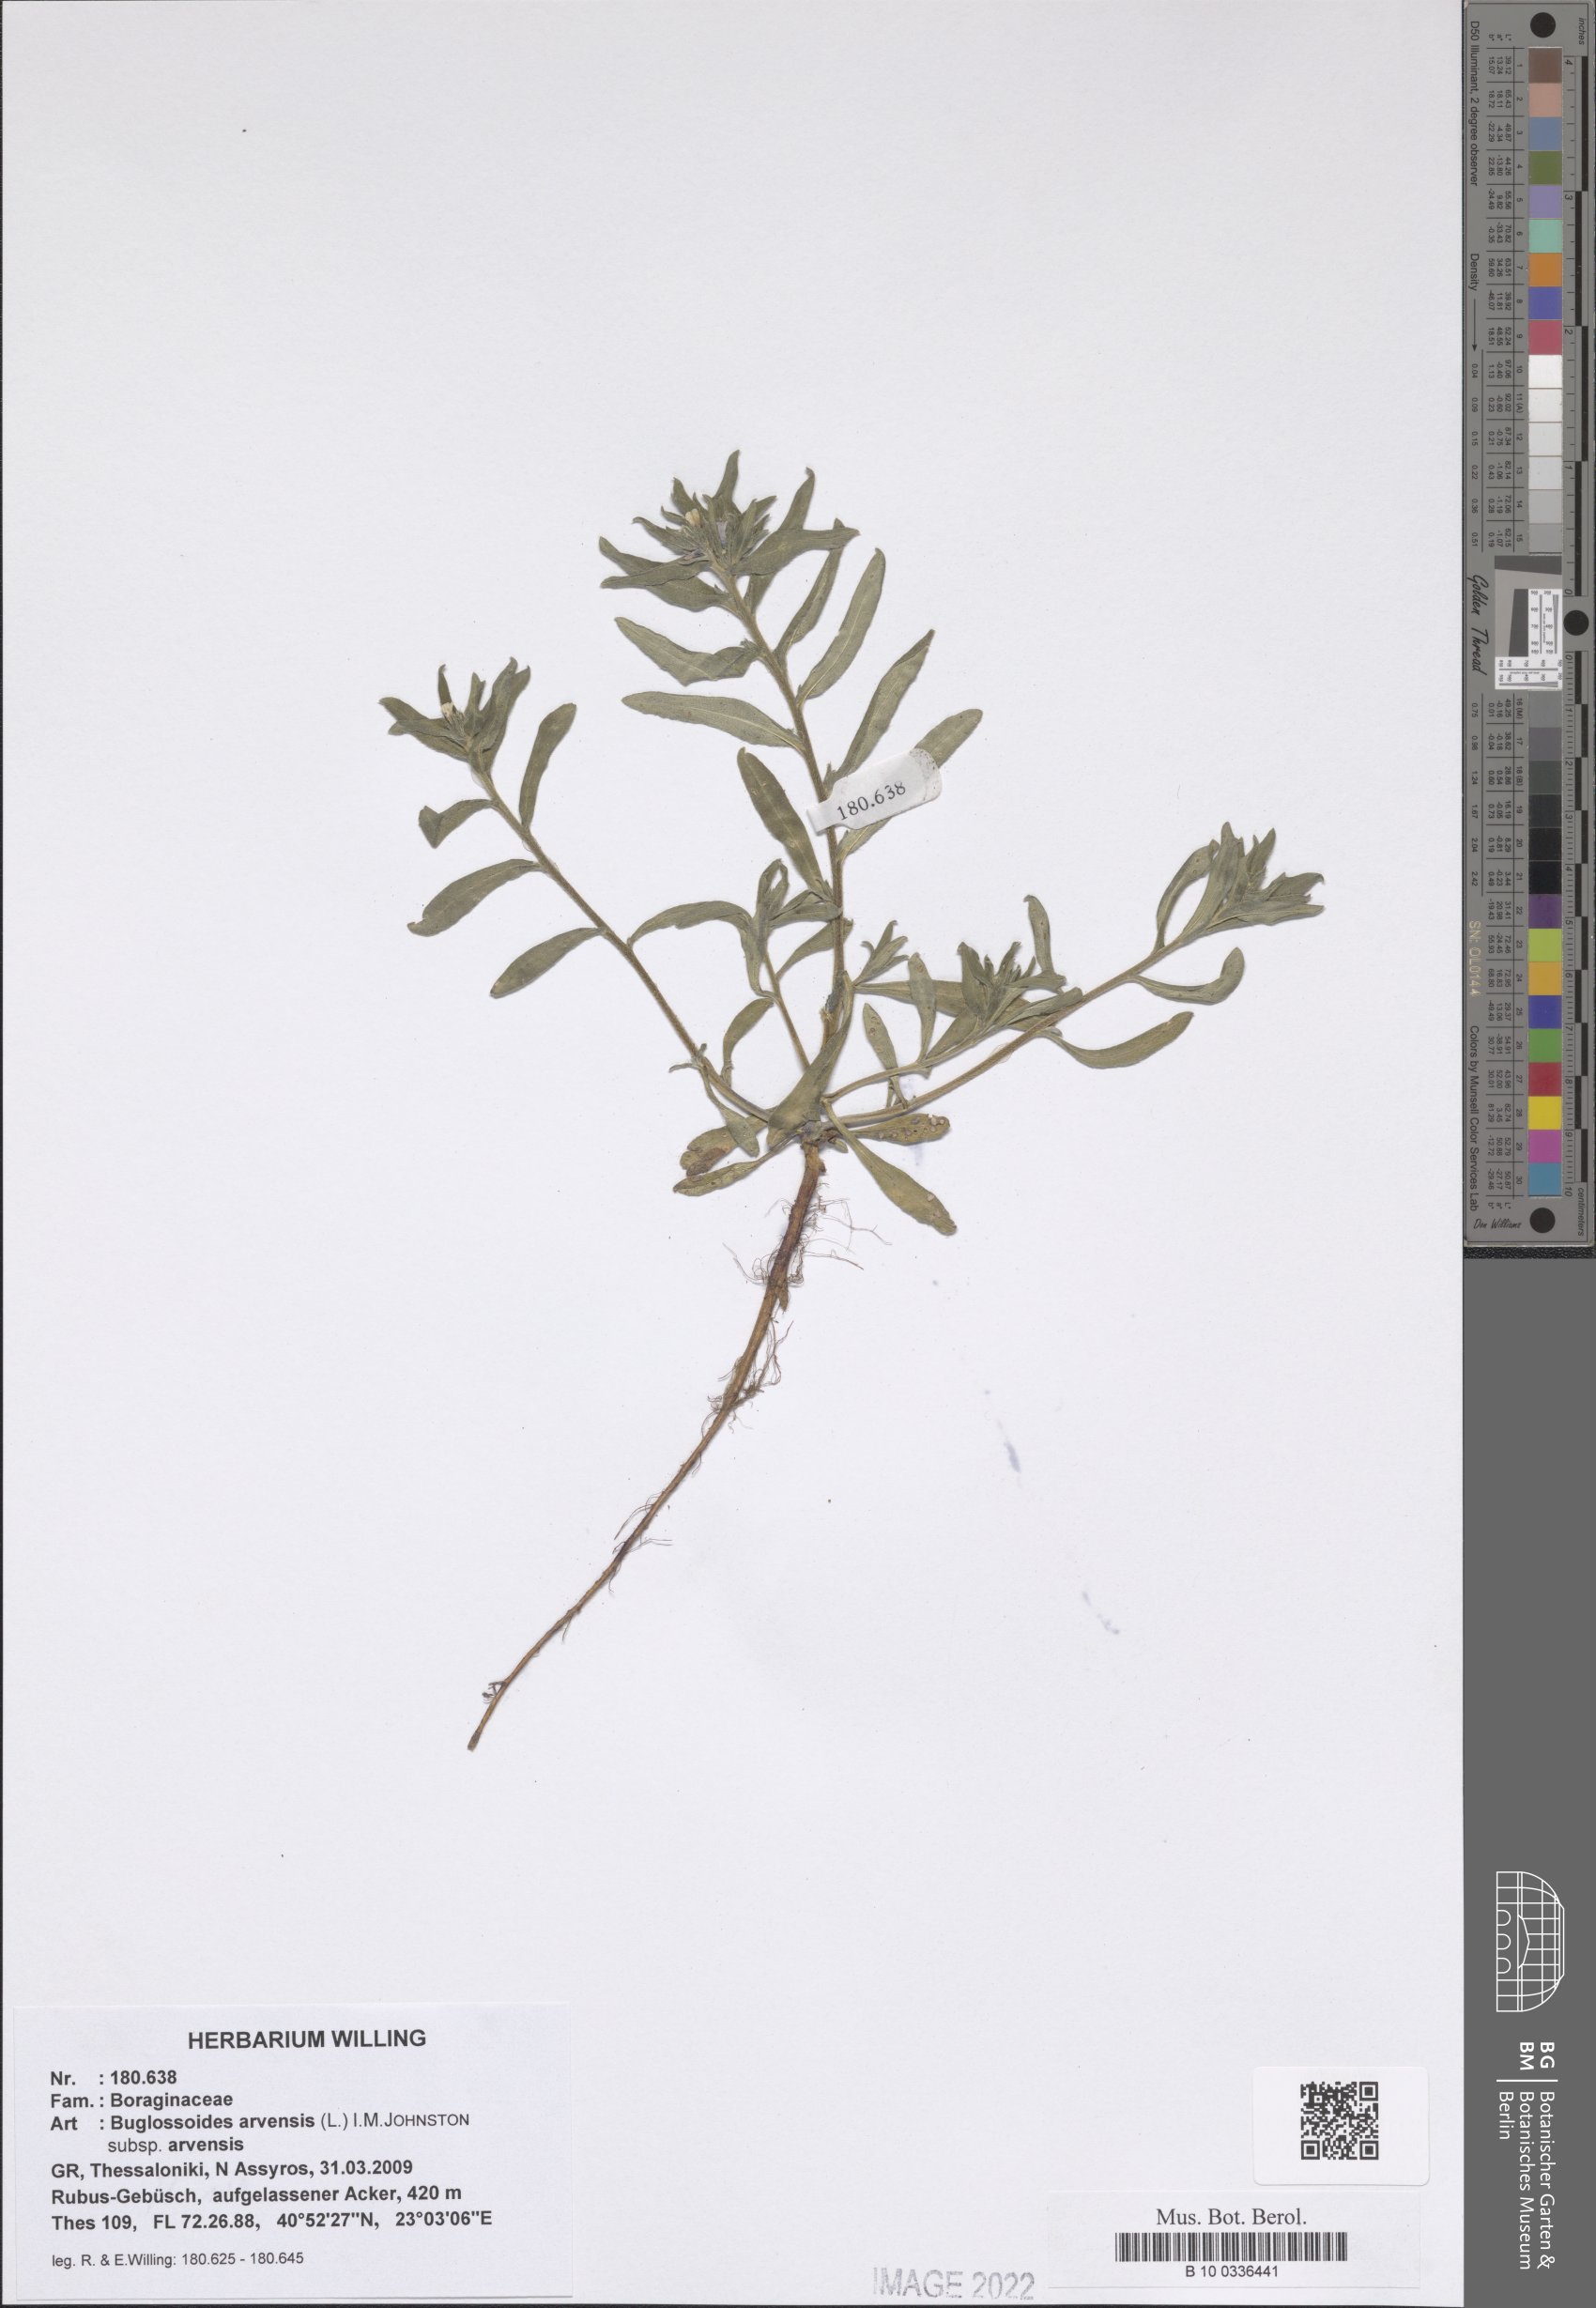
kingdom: Plantae
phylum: Tracheophyta
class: Magnoliopsida
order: Boraginales
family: Boraginaceae
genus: Buglossoides
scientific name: Buglossoides arvensis
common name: Corn gromwell
